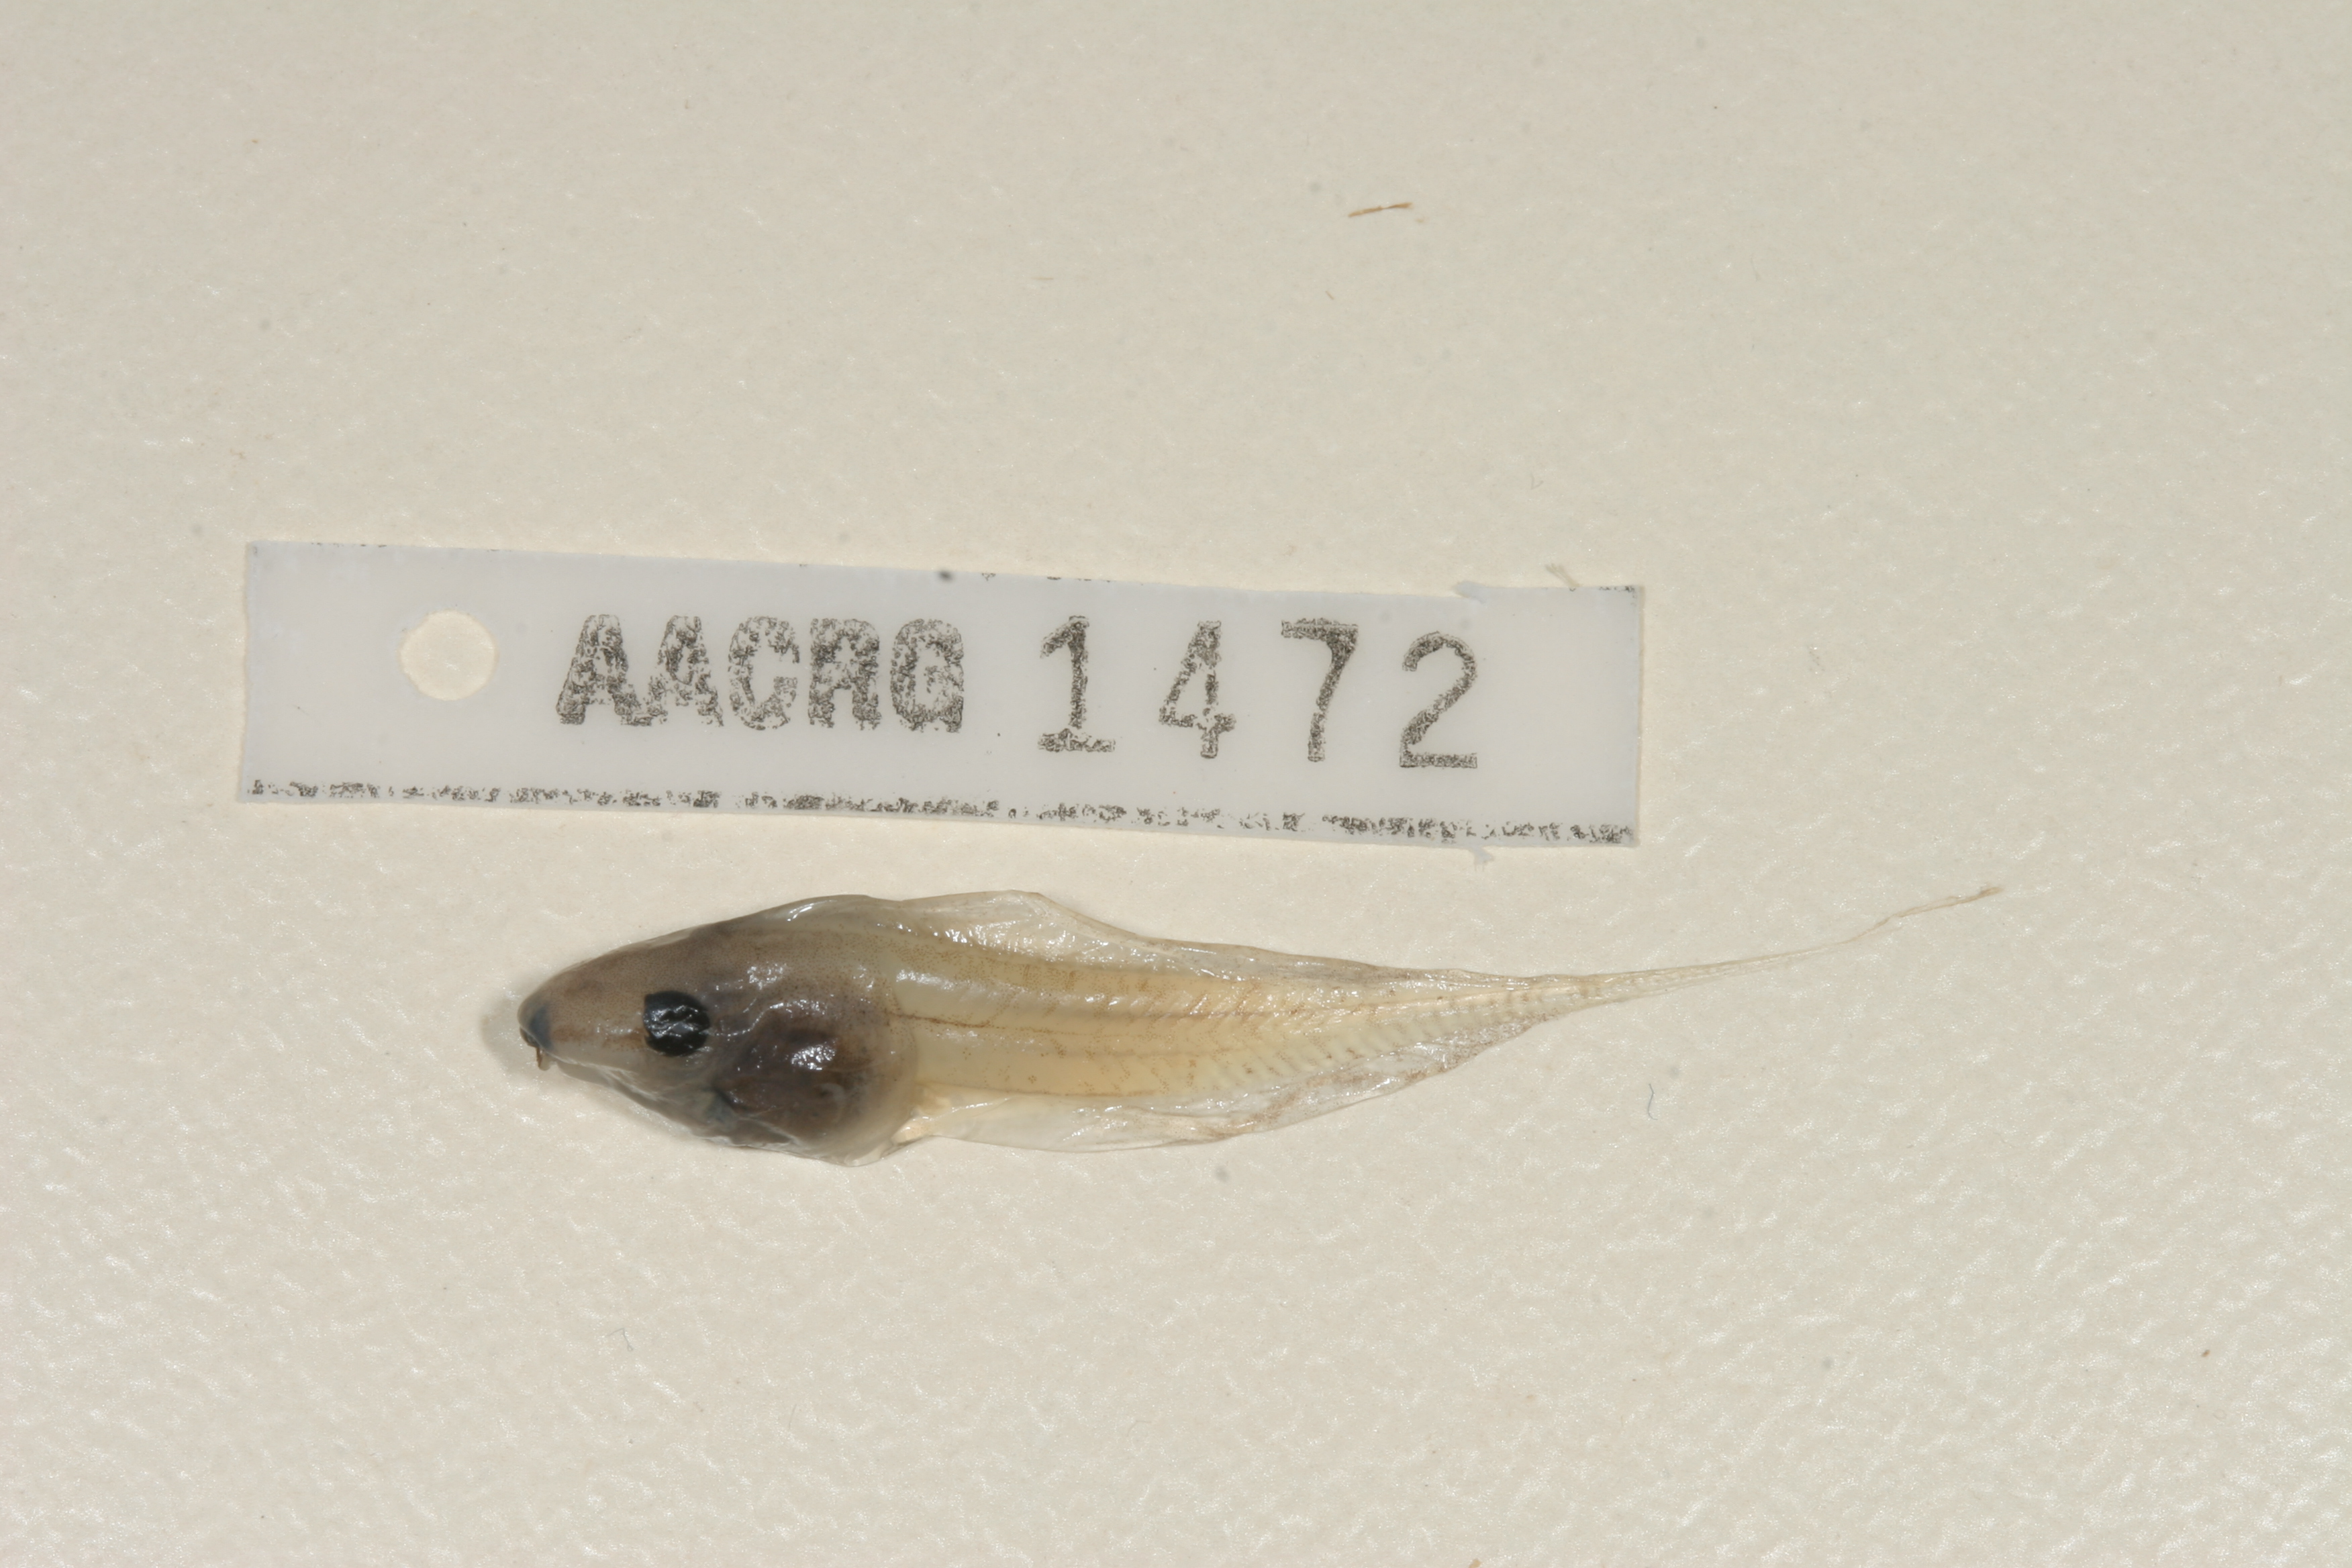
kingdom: Animalia
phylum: Chordata
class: Amphibia
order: Anura
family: Hyperoliidae
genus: Kassina
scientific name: Kassina senegalensis
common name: Senegal land frog
